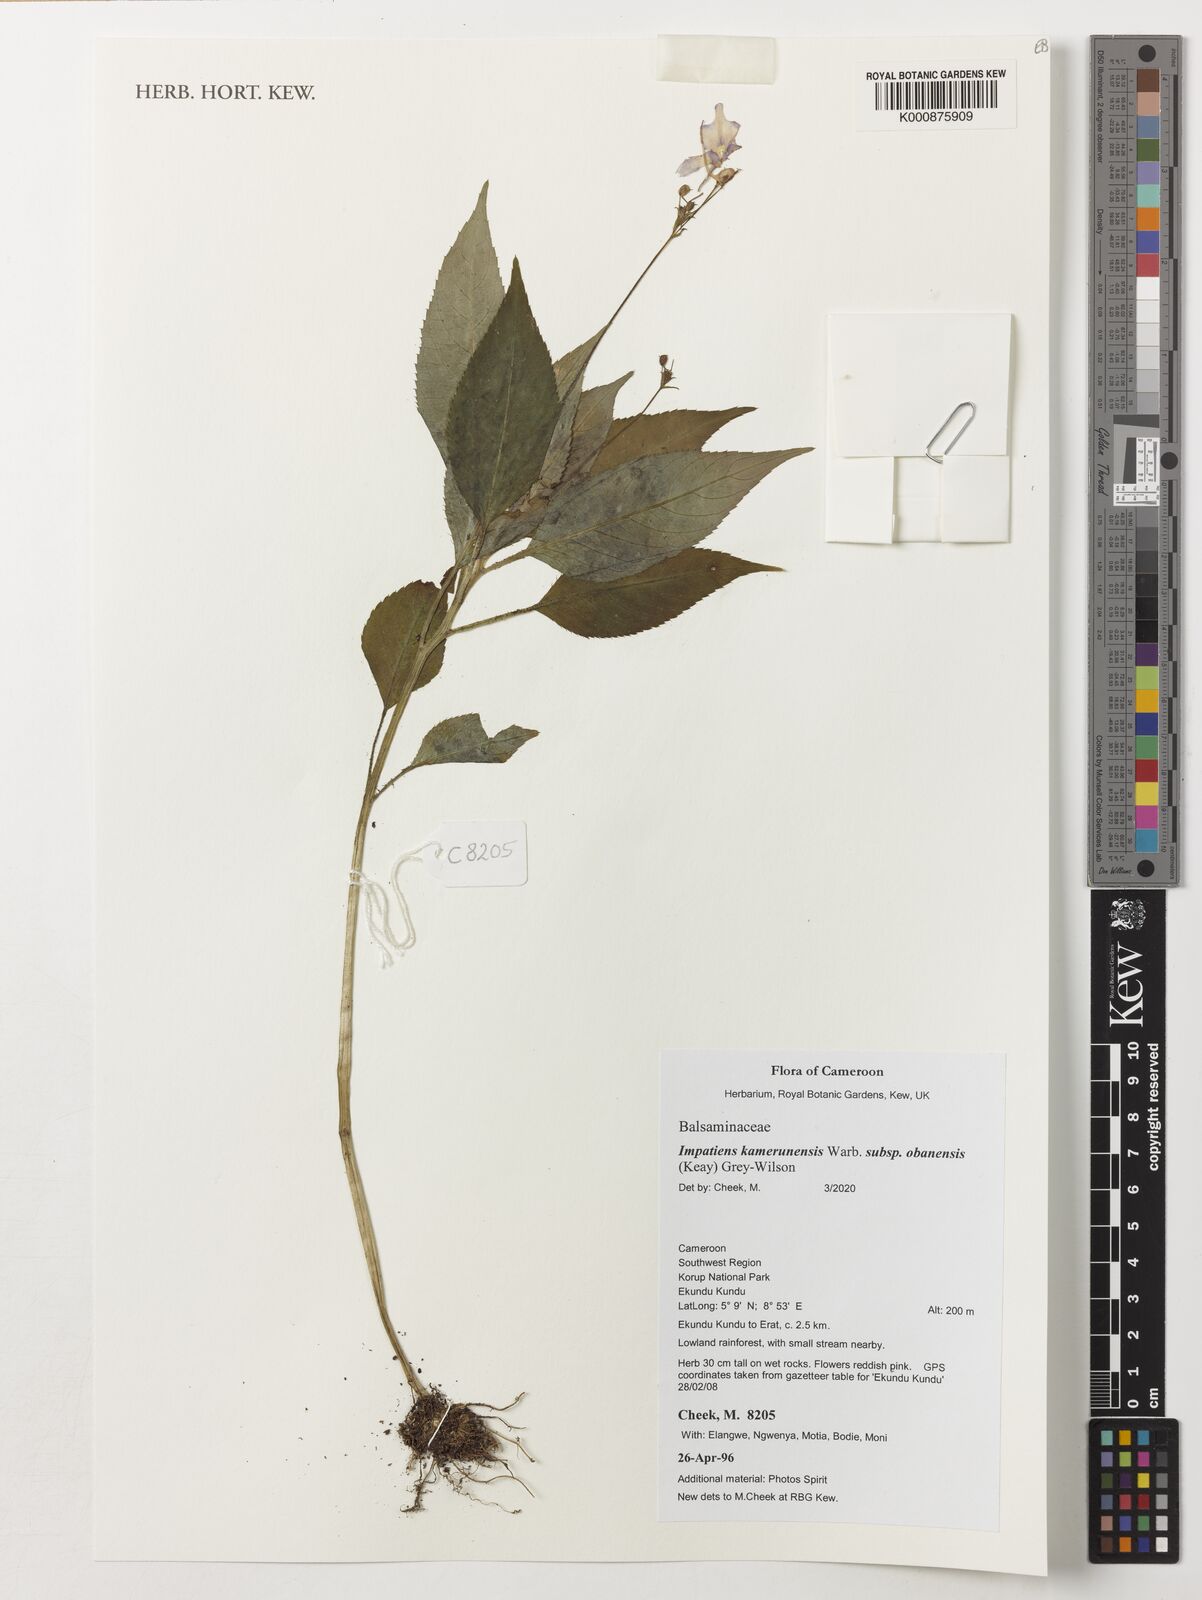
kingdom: Plantae
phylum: Tracheophyta
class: Magnoliopsida
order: Ericales
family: Balsaminaceae
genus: Impatiens
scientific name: Impatiens kamerunensis
